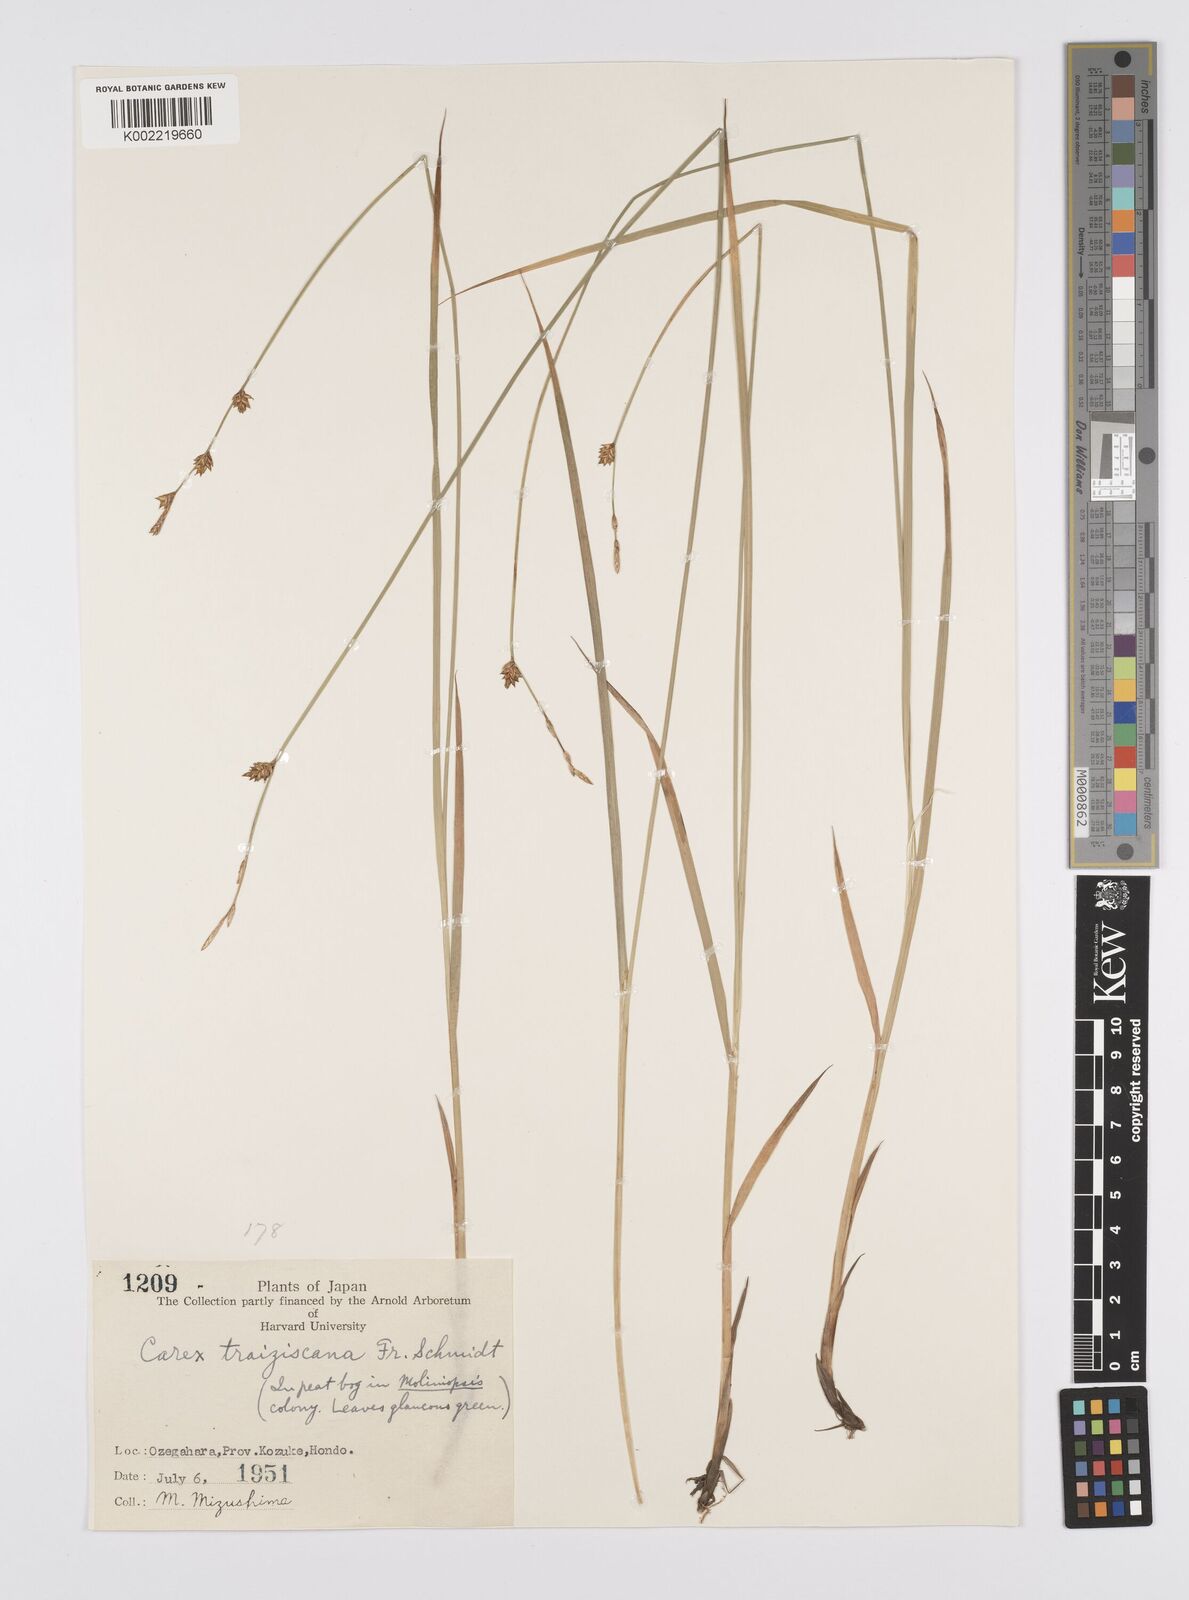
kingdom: Plantae
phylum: Tracheophyta
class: Liliopsida
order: Poales
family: Cyperaceae
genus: Carex
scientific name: Carex traiziscana
